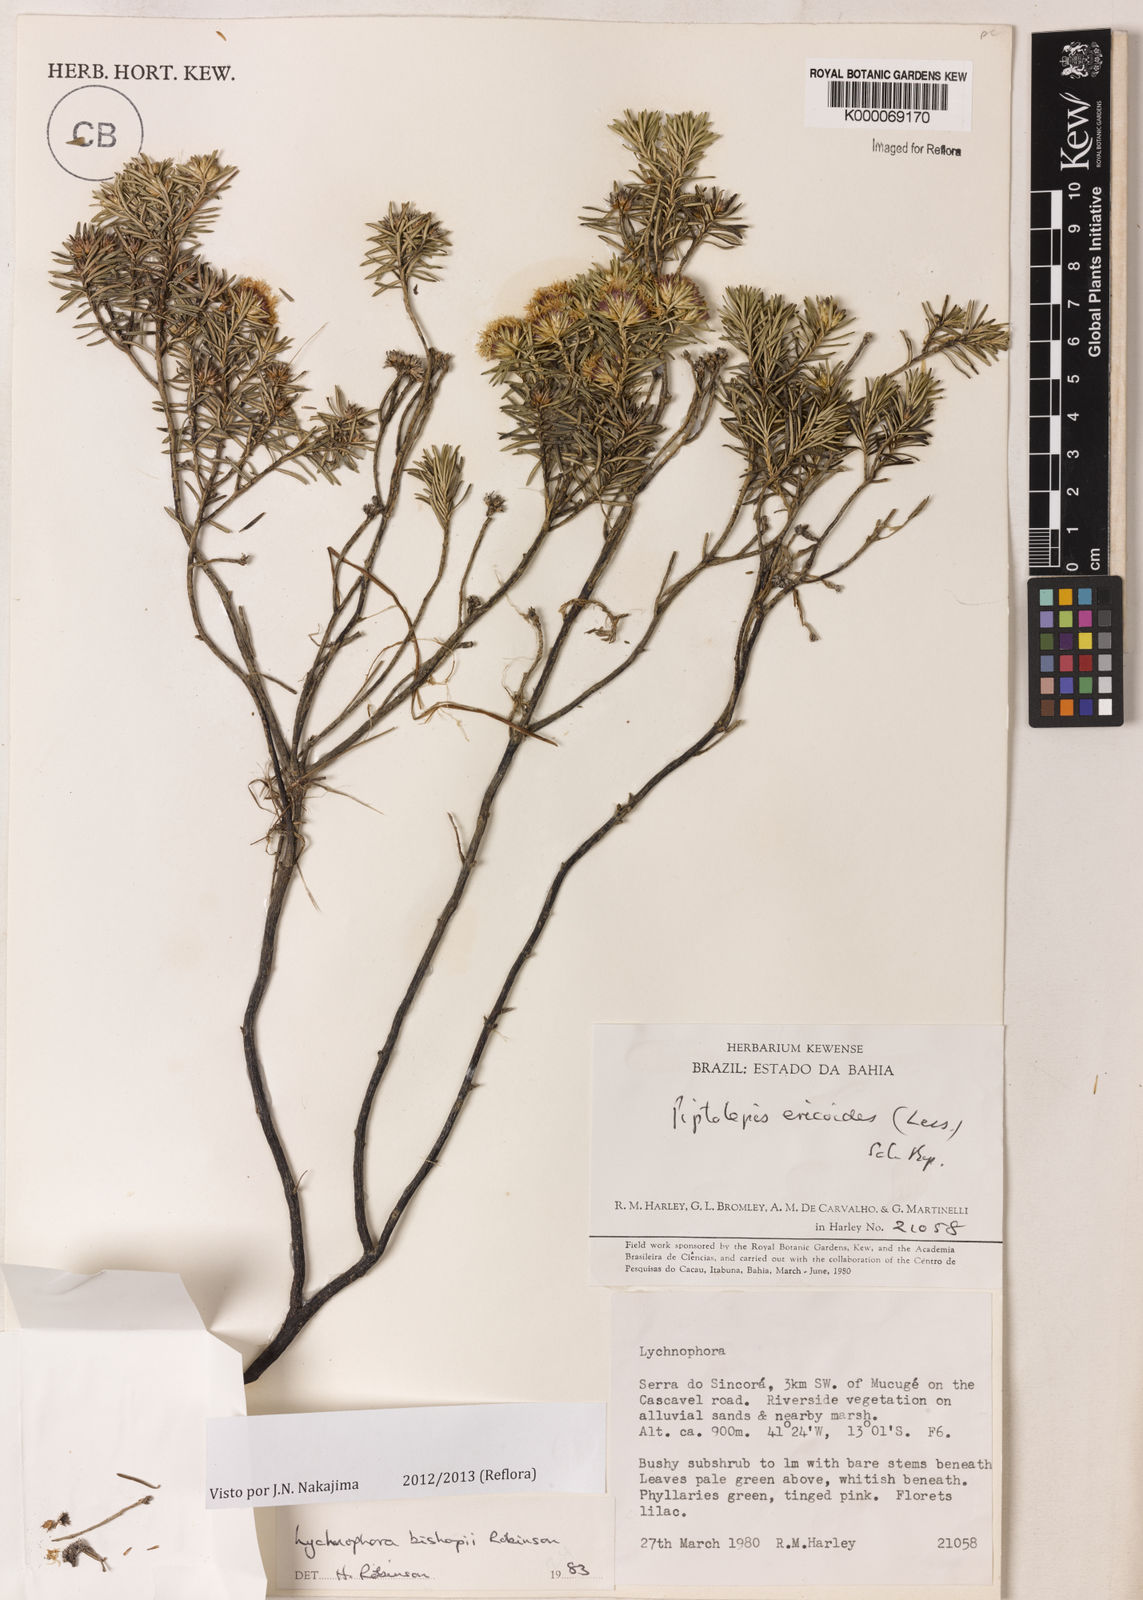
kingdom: Plantae
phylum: Tracheophyta
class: Magnoliopsida
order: Asterales
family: Asteraceae
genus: Lychnophorella
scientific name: Lychnophorella bishopii
